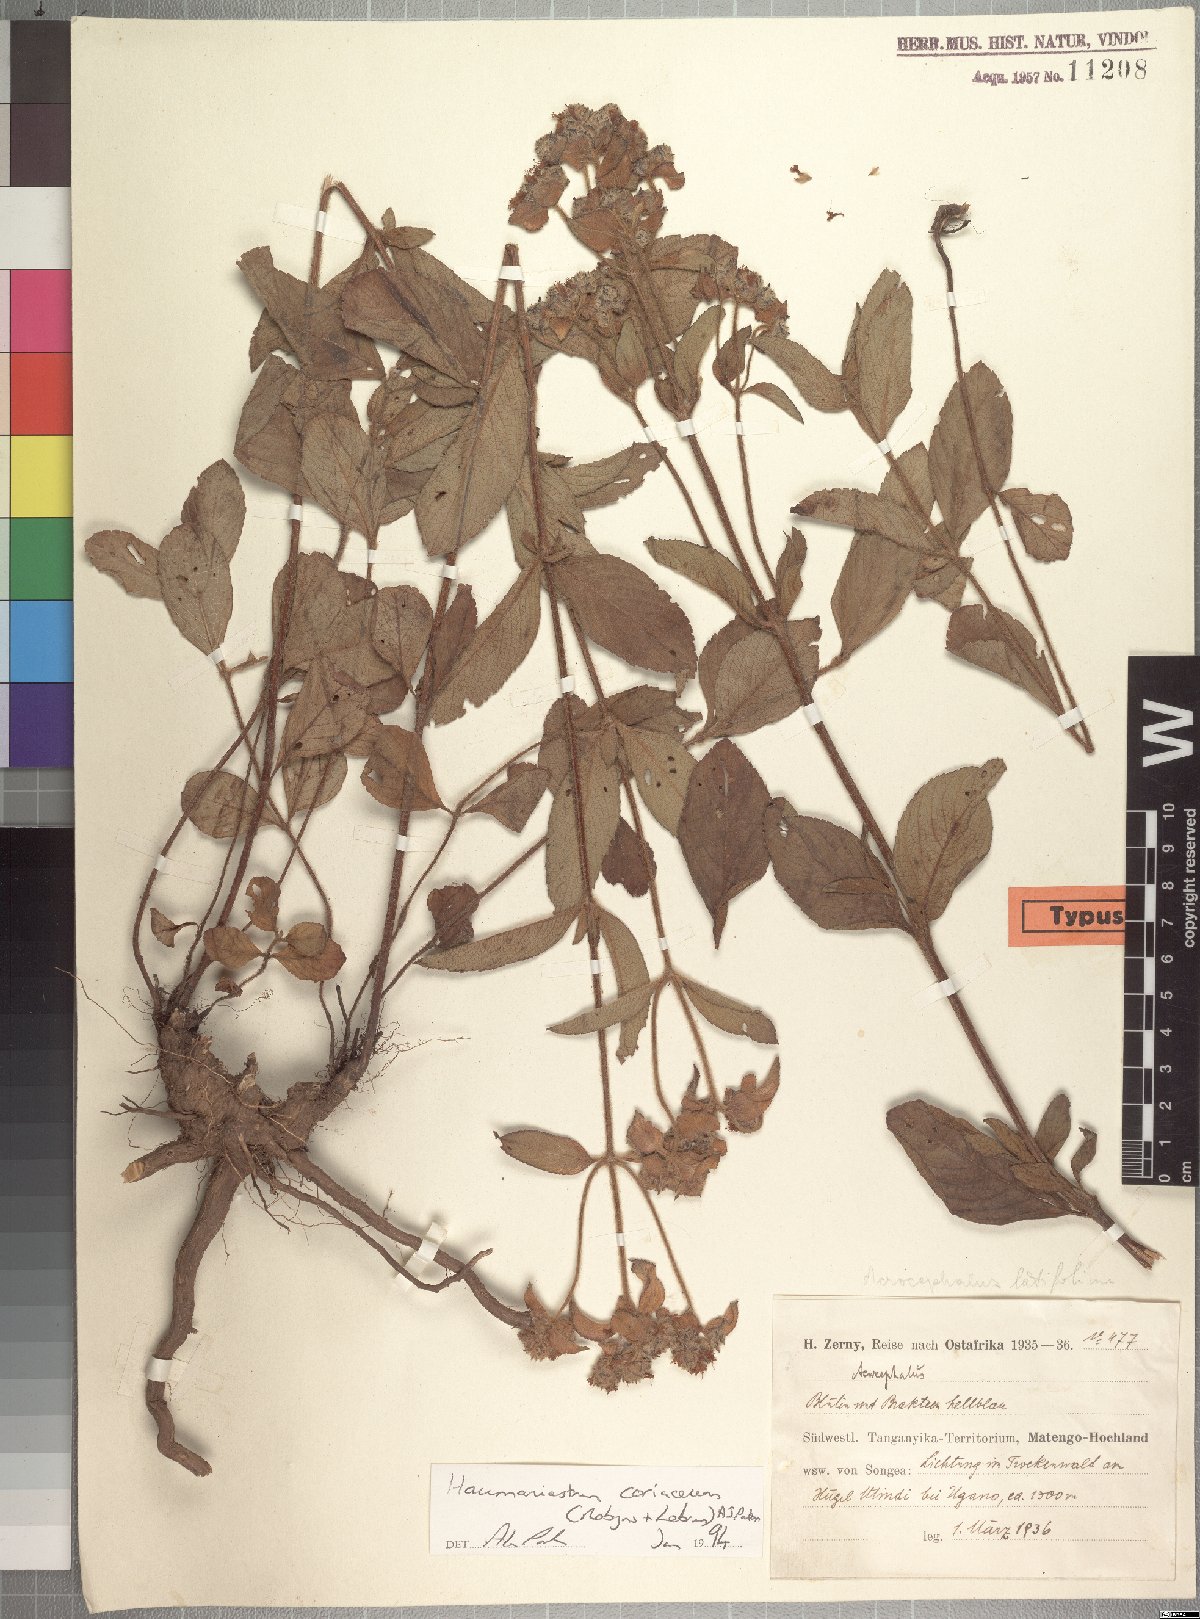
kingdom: Plantae
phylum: Tracheophyta
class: Magnoliopsida
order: Lamiales
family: Lamiaceae
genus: Haumaniastrum
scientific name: Haumaniastrum coriaceum
